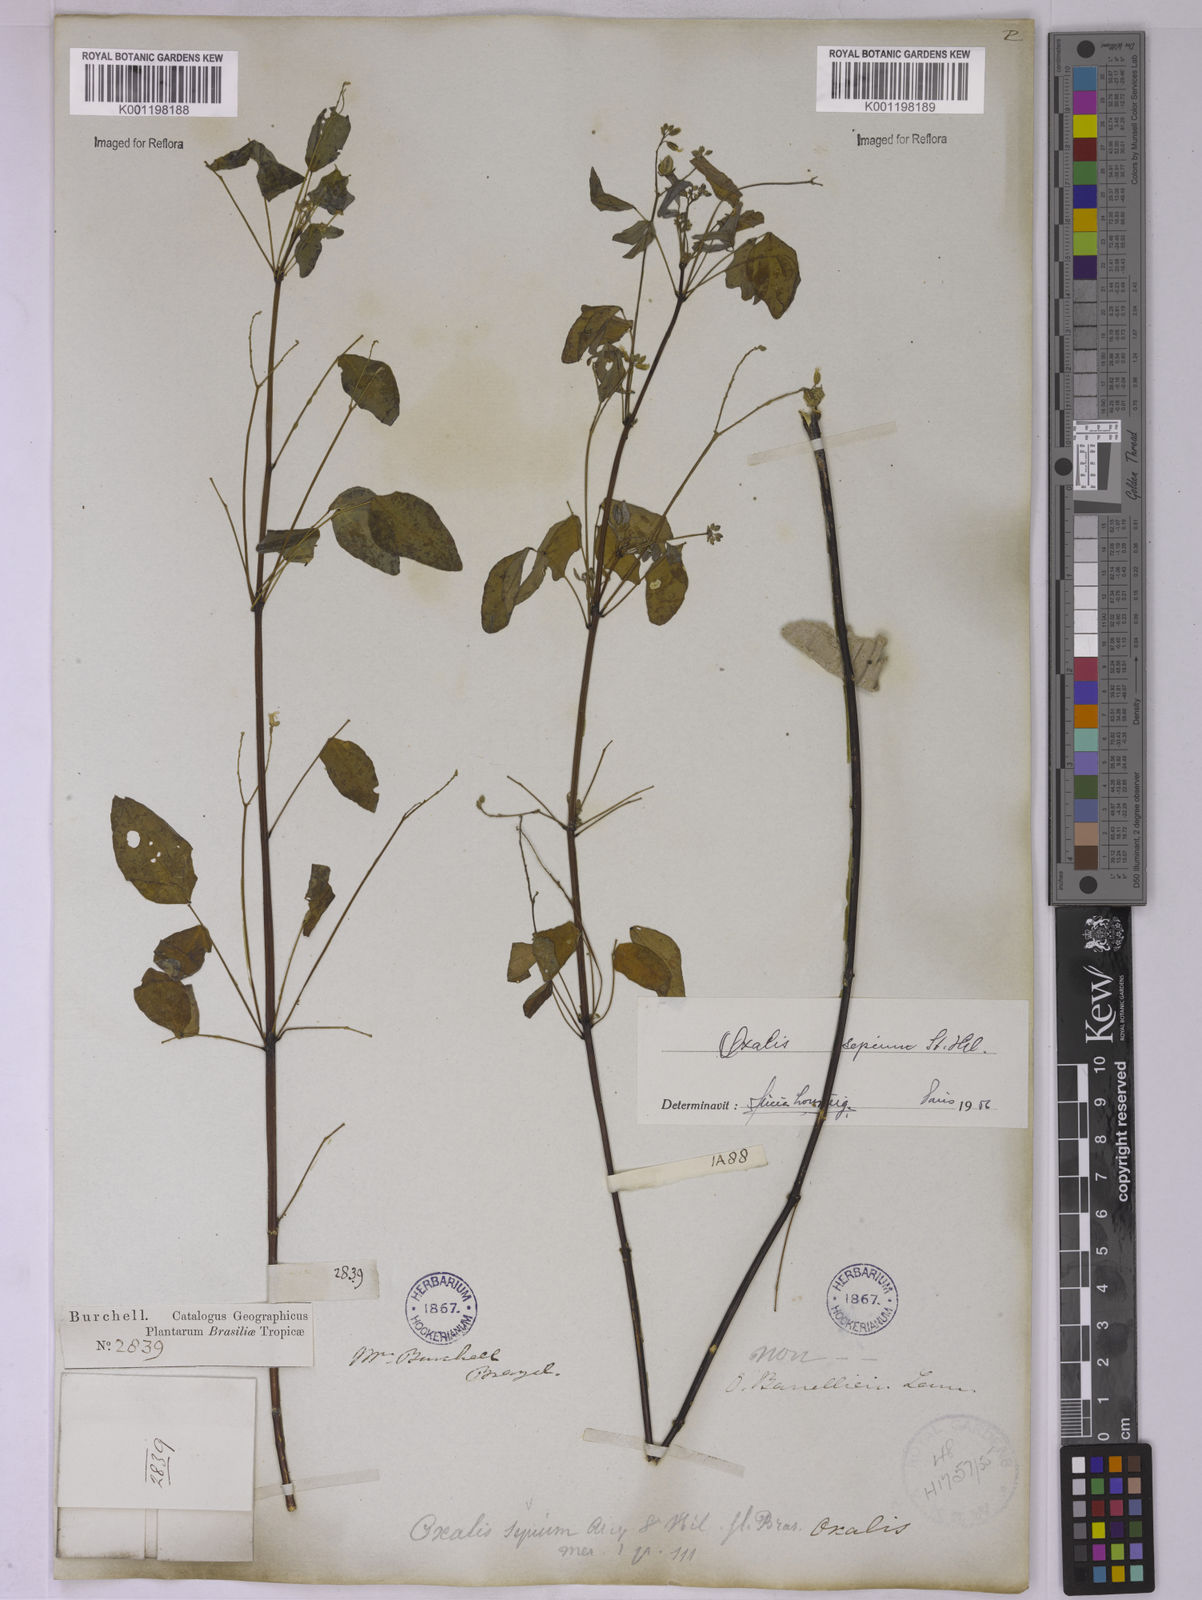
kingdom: Plantae
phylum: Tracheophyta
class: Magnoliopsida
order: Oxalidales
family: Oxalidaceae
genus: Oxalis
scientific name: Oxalis sepium
